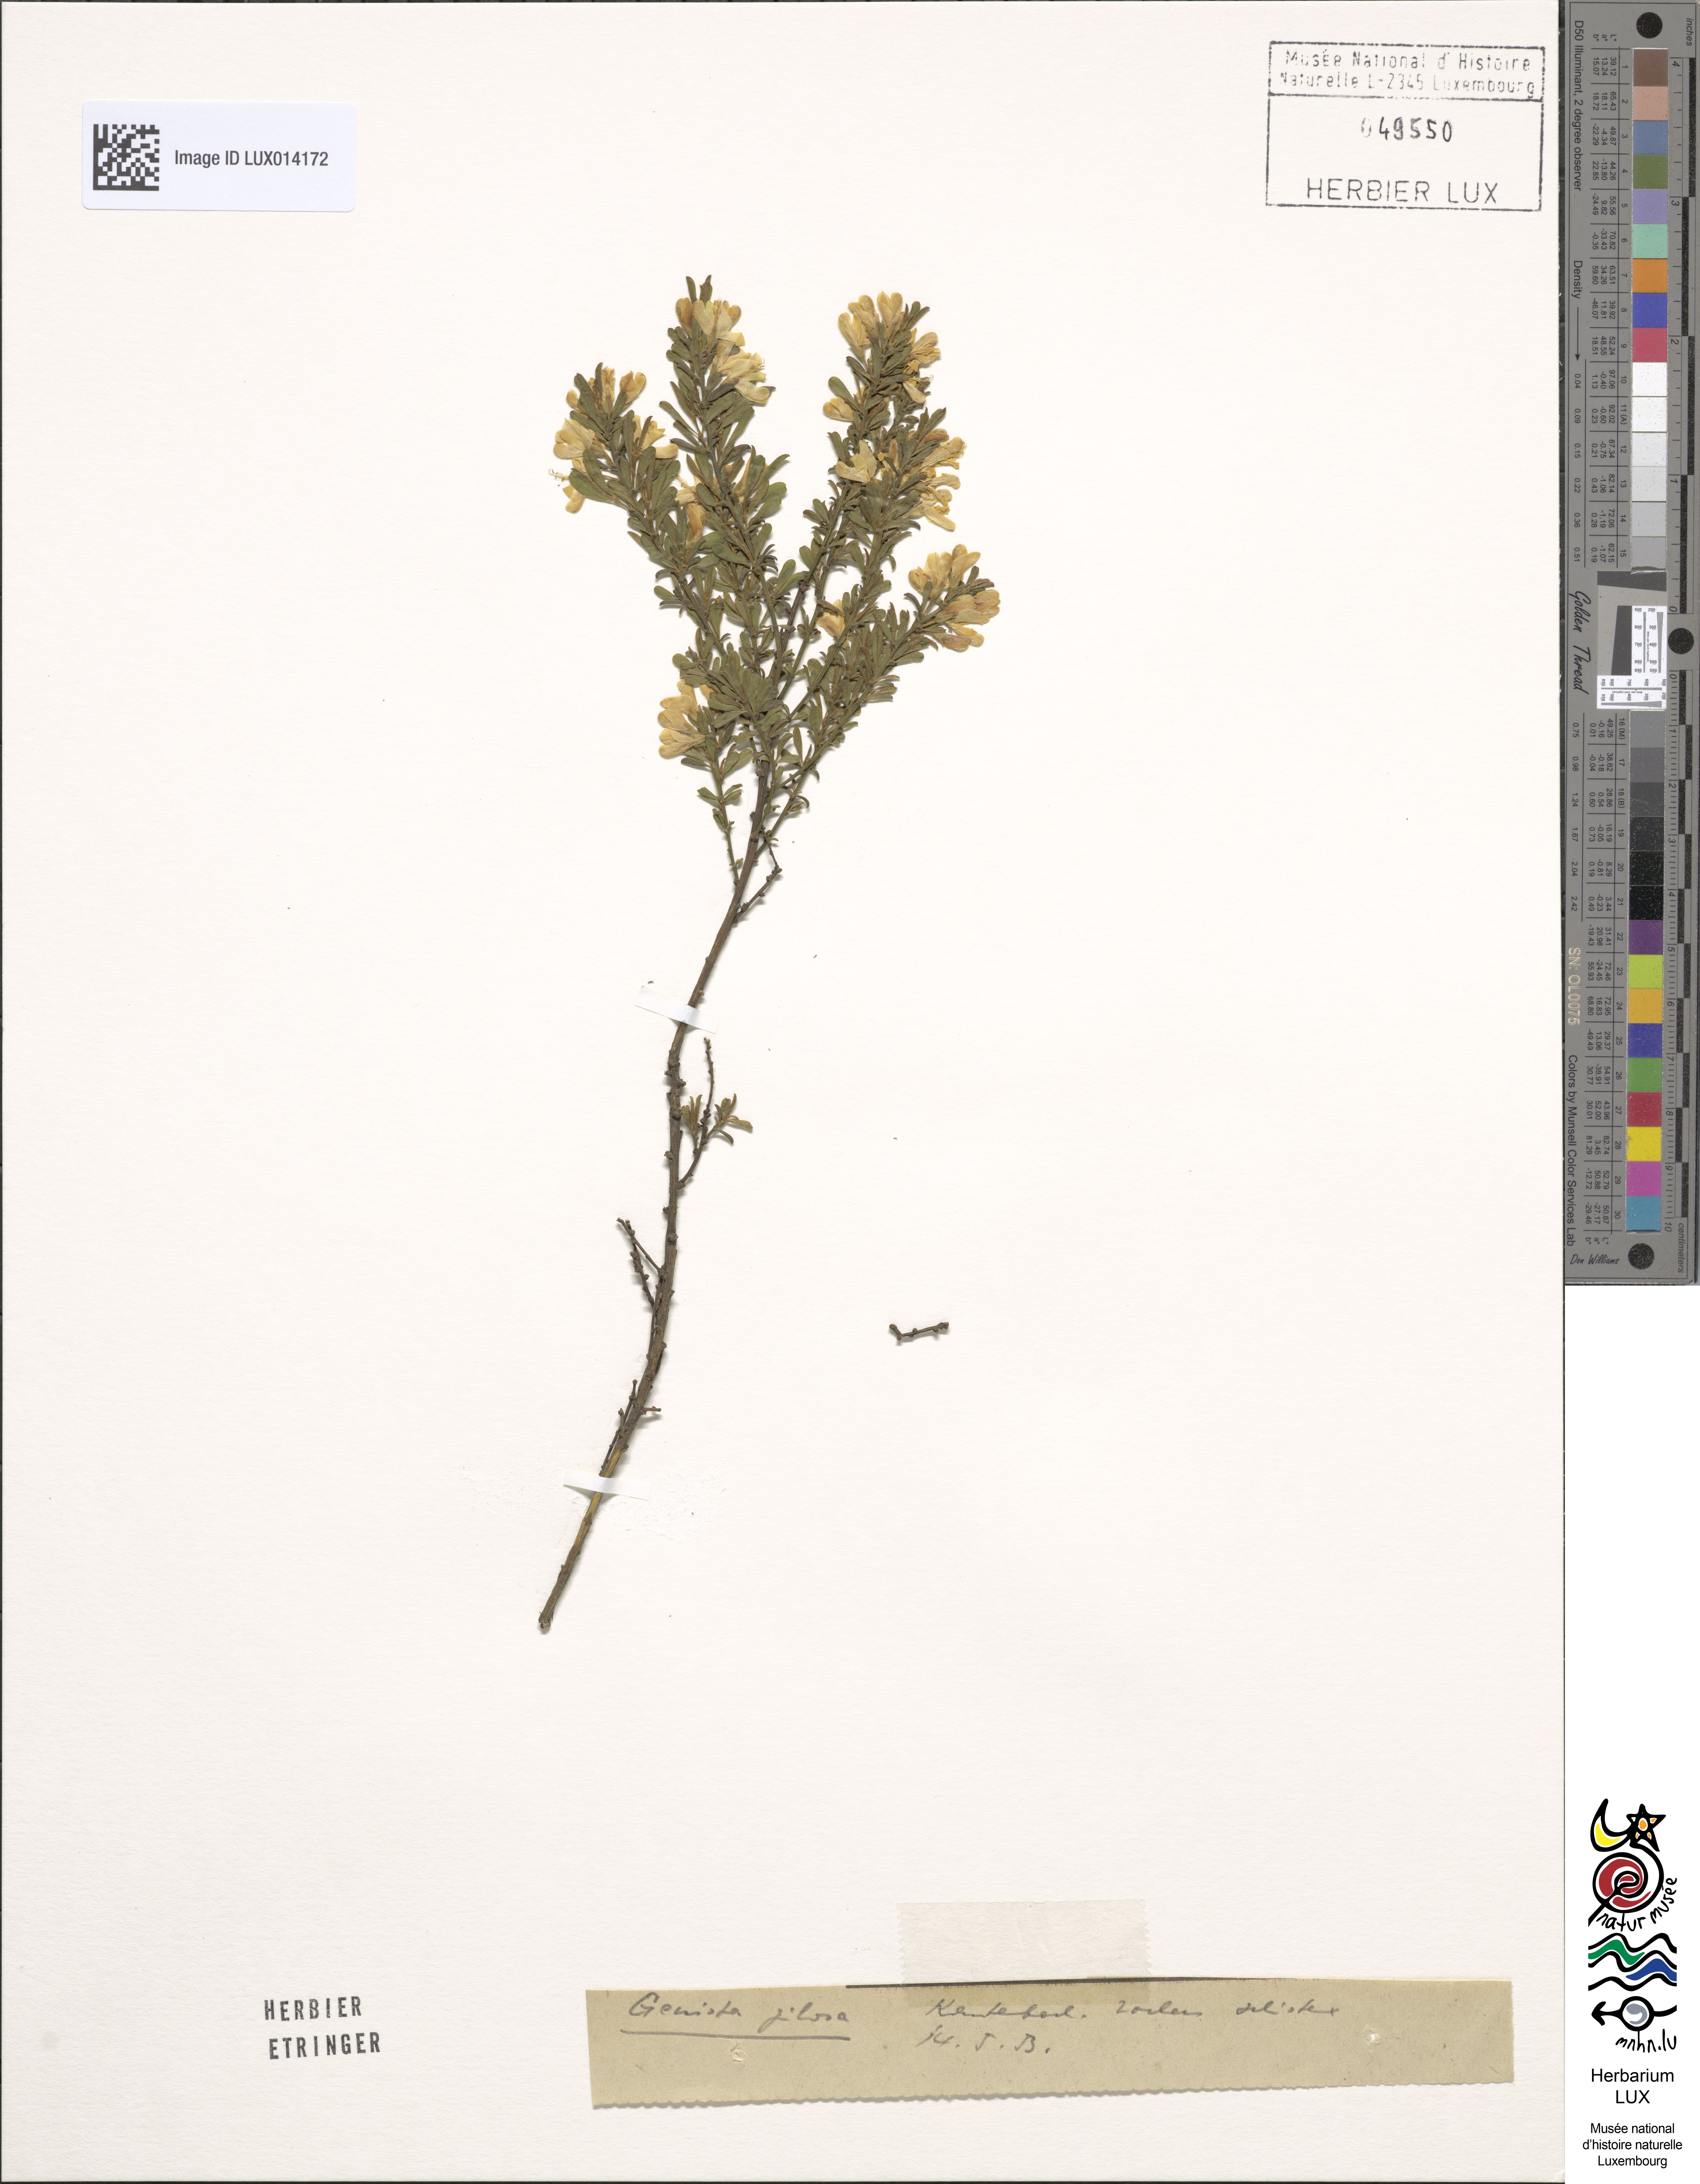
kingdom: Plantae
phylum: Tracheophyta
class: Magnoliopsida
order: Fabales
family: Fabaceae
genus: Genista
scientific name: Genista pilosa
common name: Hairy greenweed
